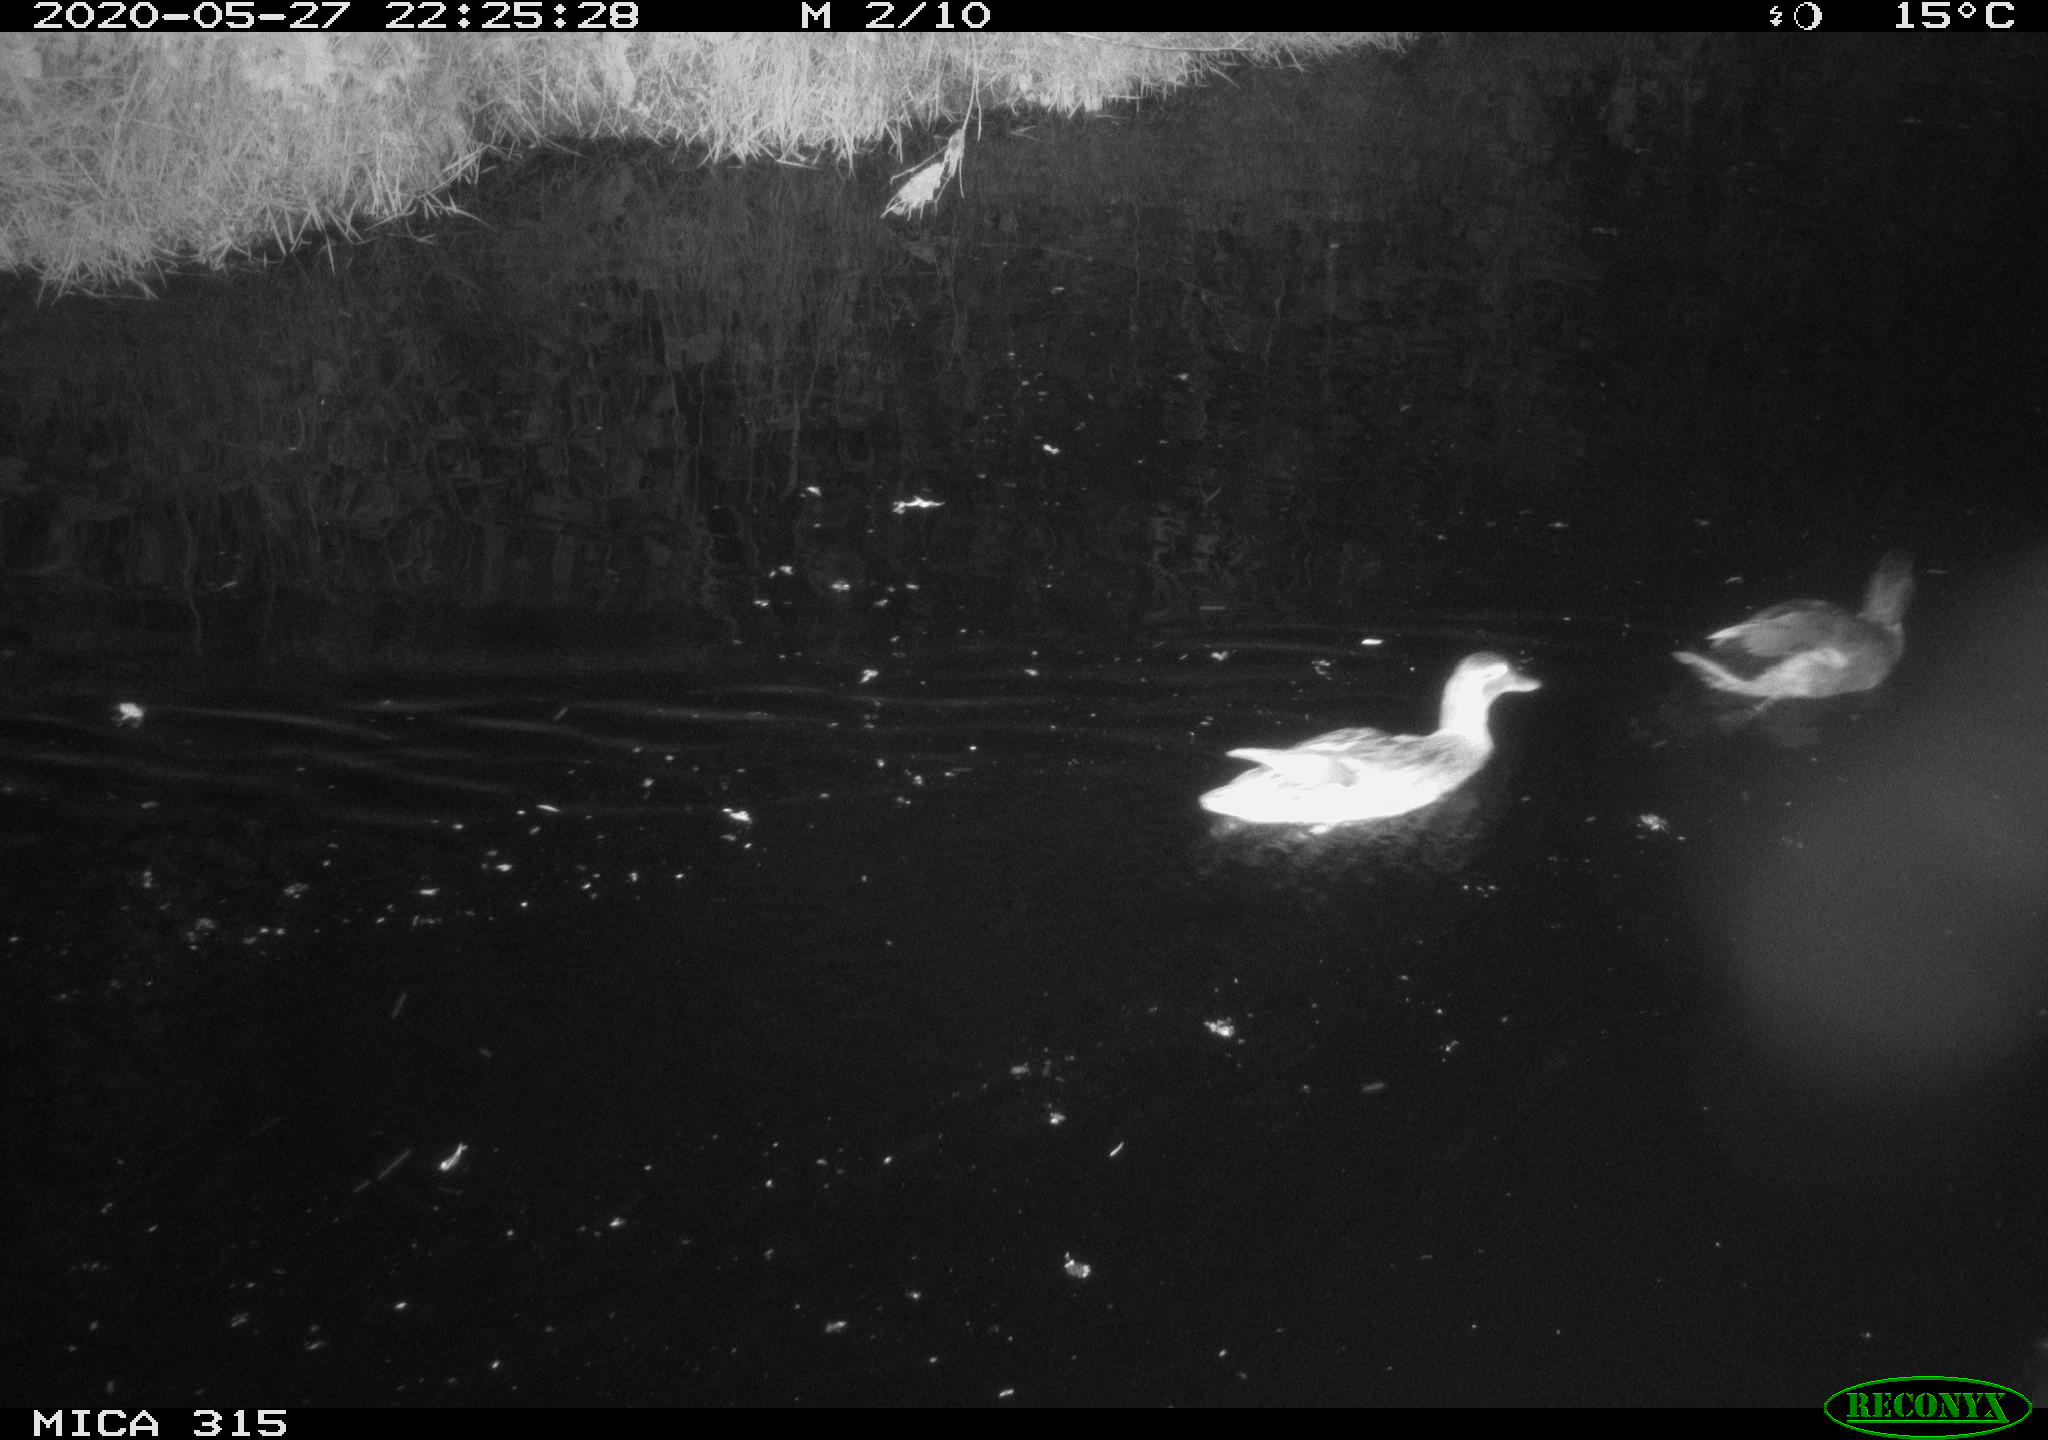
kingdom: Animalia
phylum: Chordata
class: Aves
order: Anseriformes
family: Anatidae
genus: Anas
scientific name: Anas platyrhynchos
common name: Mallard
